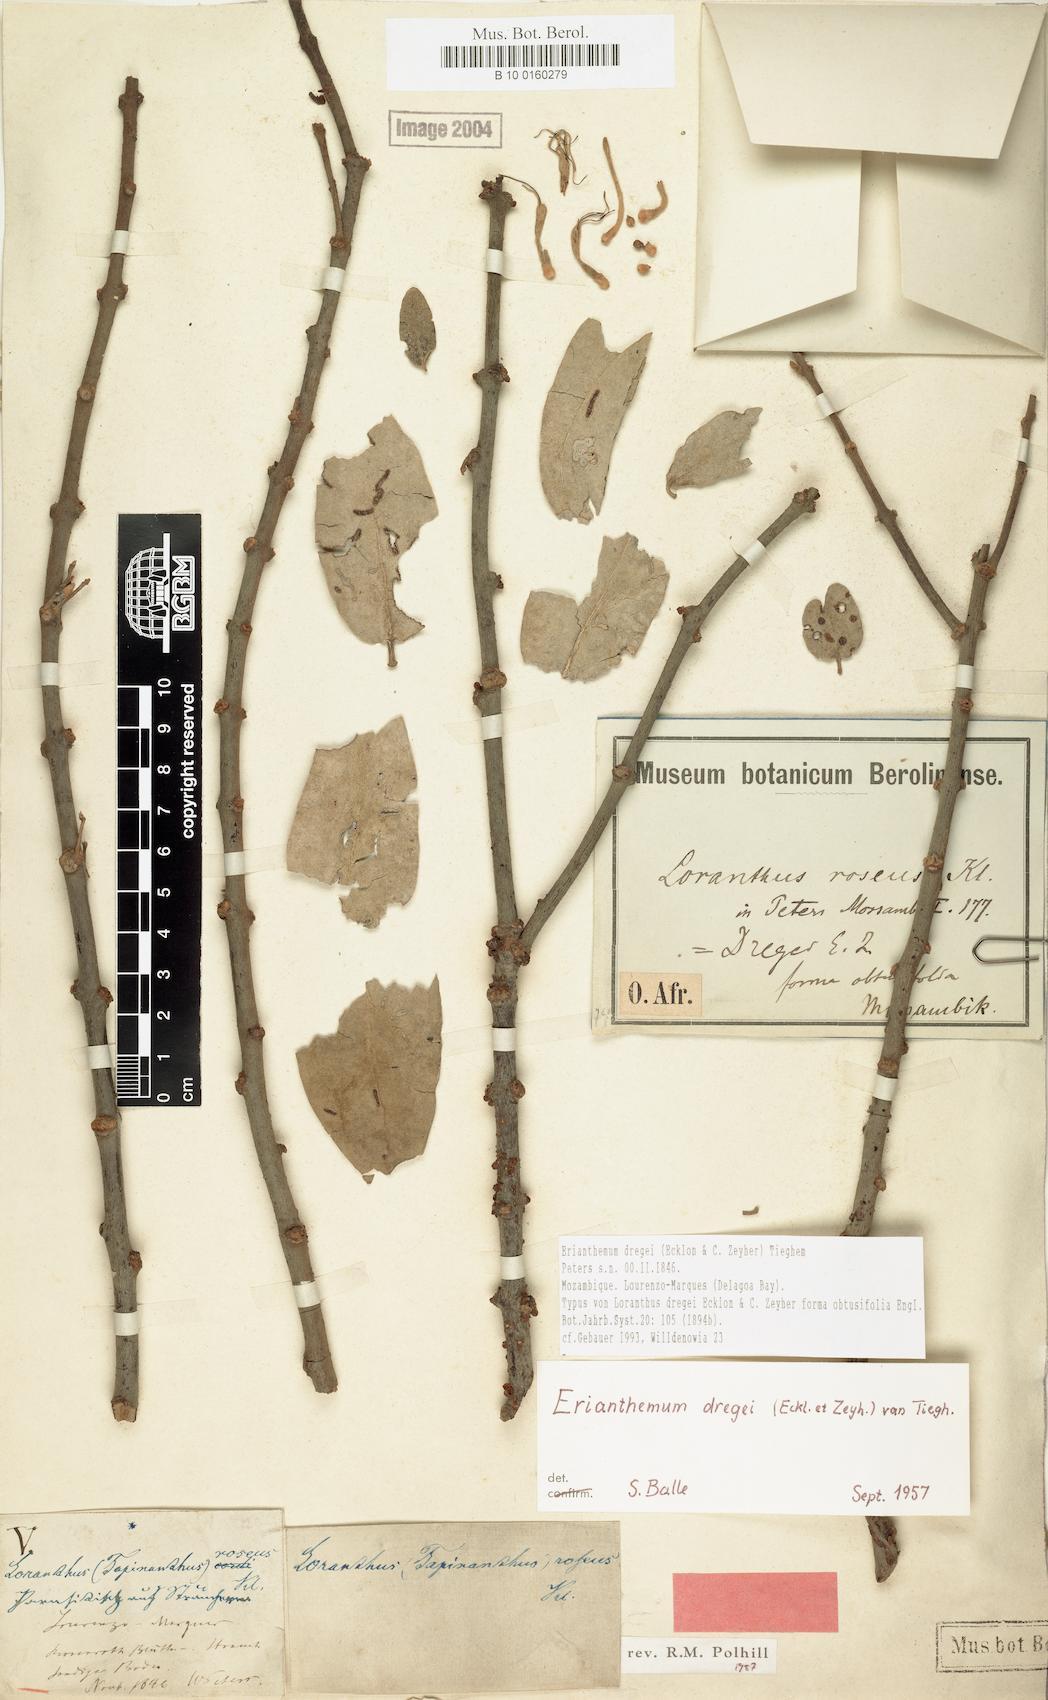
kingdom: Plantae
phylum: Tracheophyta
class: Magnoliopsida
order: Santalales
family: Loranthaceae
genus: Erianthemum
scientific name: Erianthemum dregei
